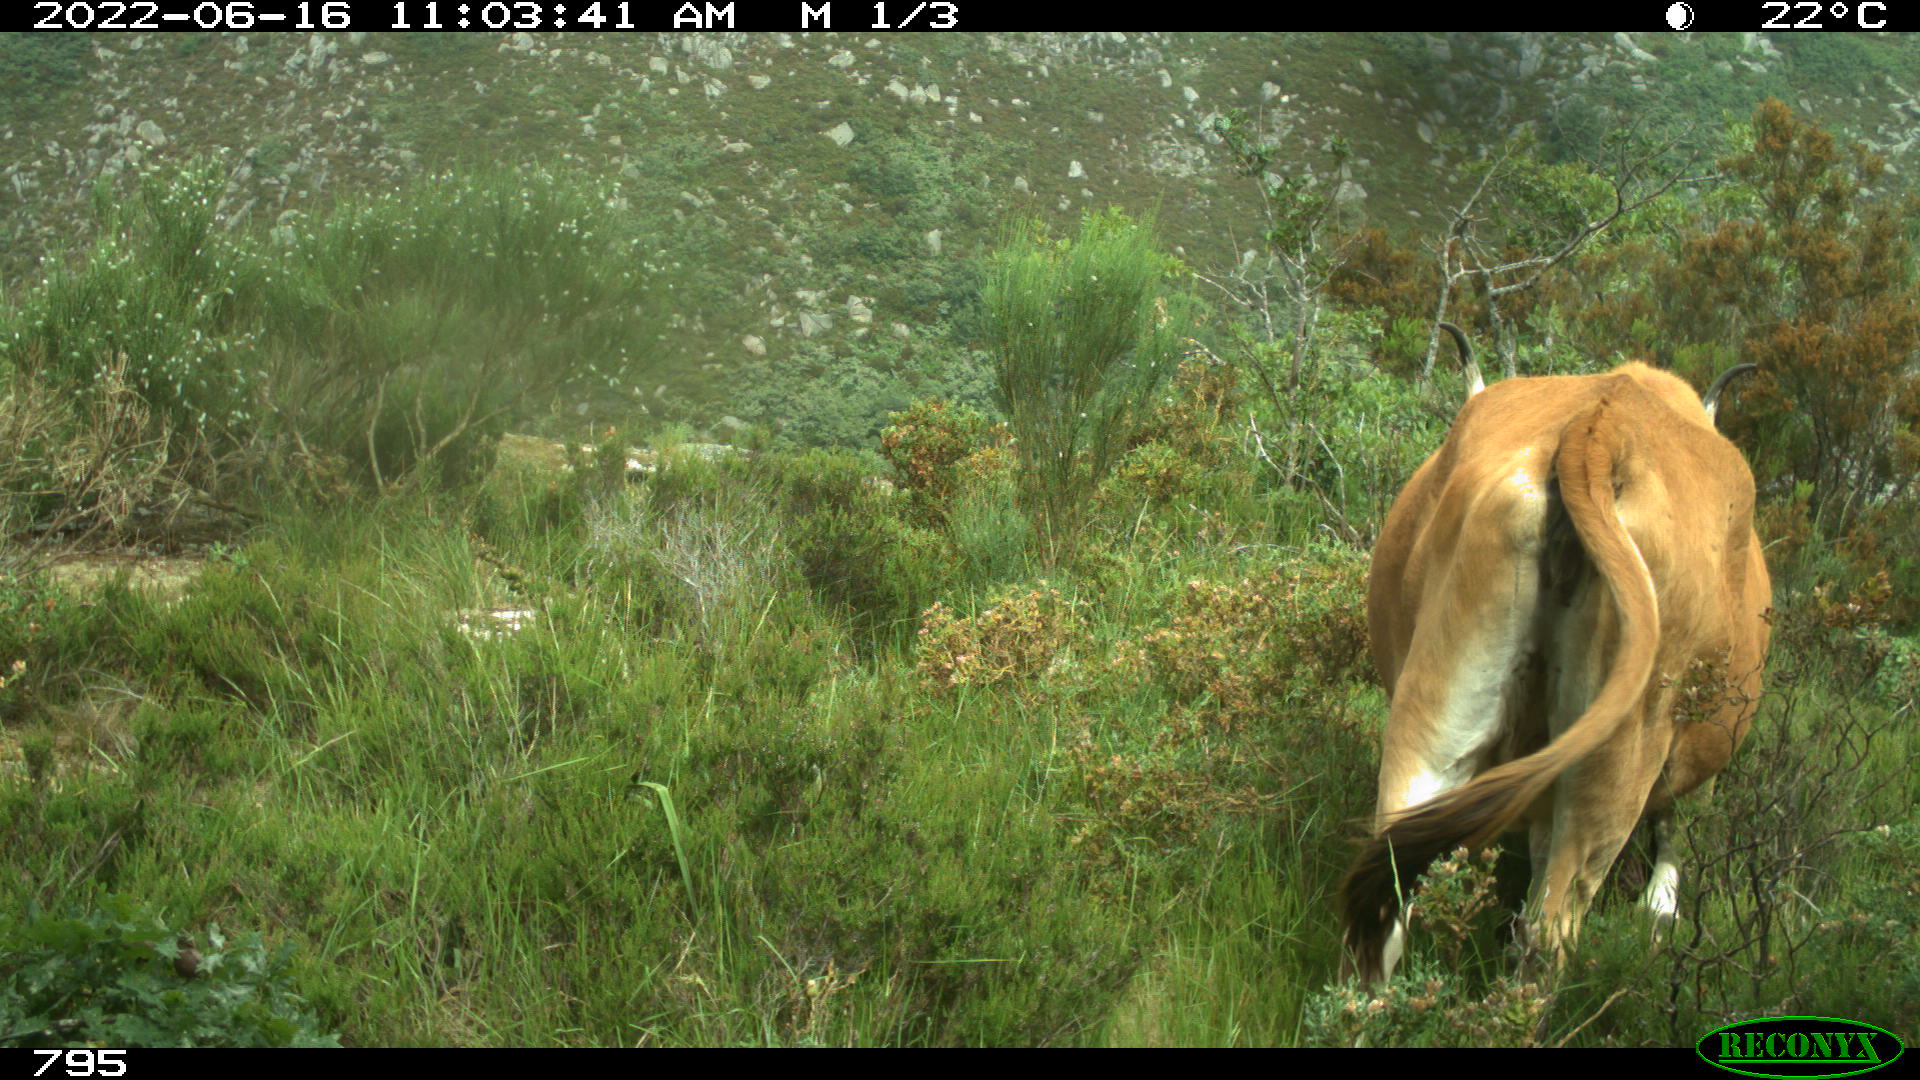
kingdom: Animalia
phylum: Chordata
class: Mammalia
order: Artiodactyla
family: Bovidae
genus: Bos
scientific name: Bos taurus
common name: Domesticated cattle
